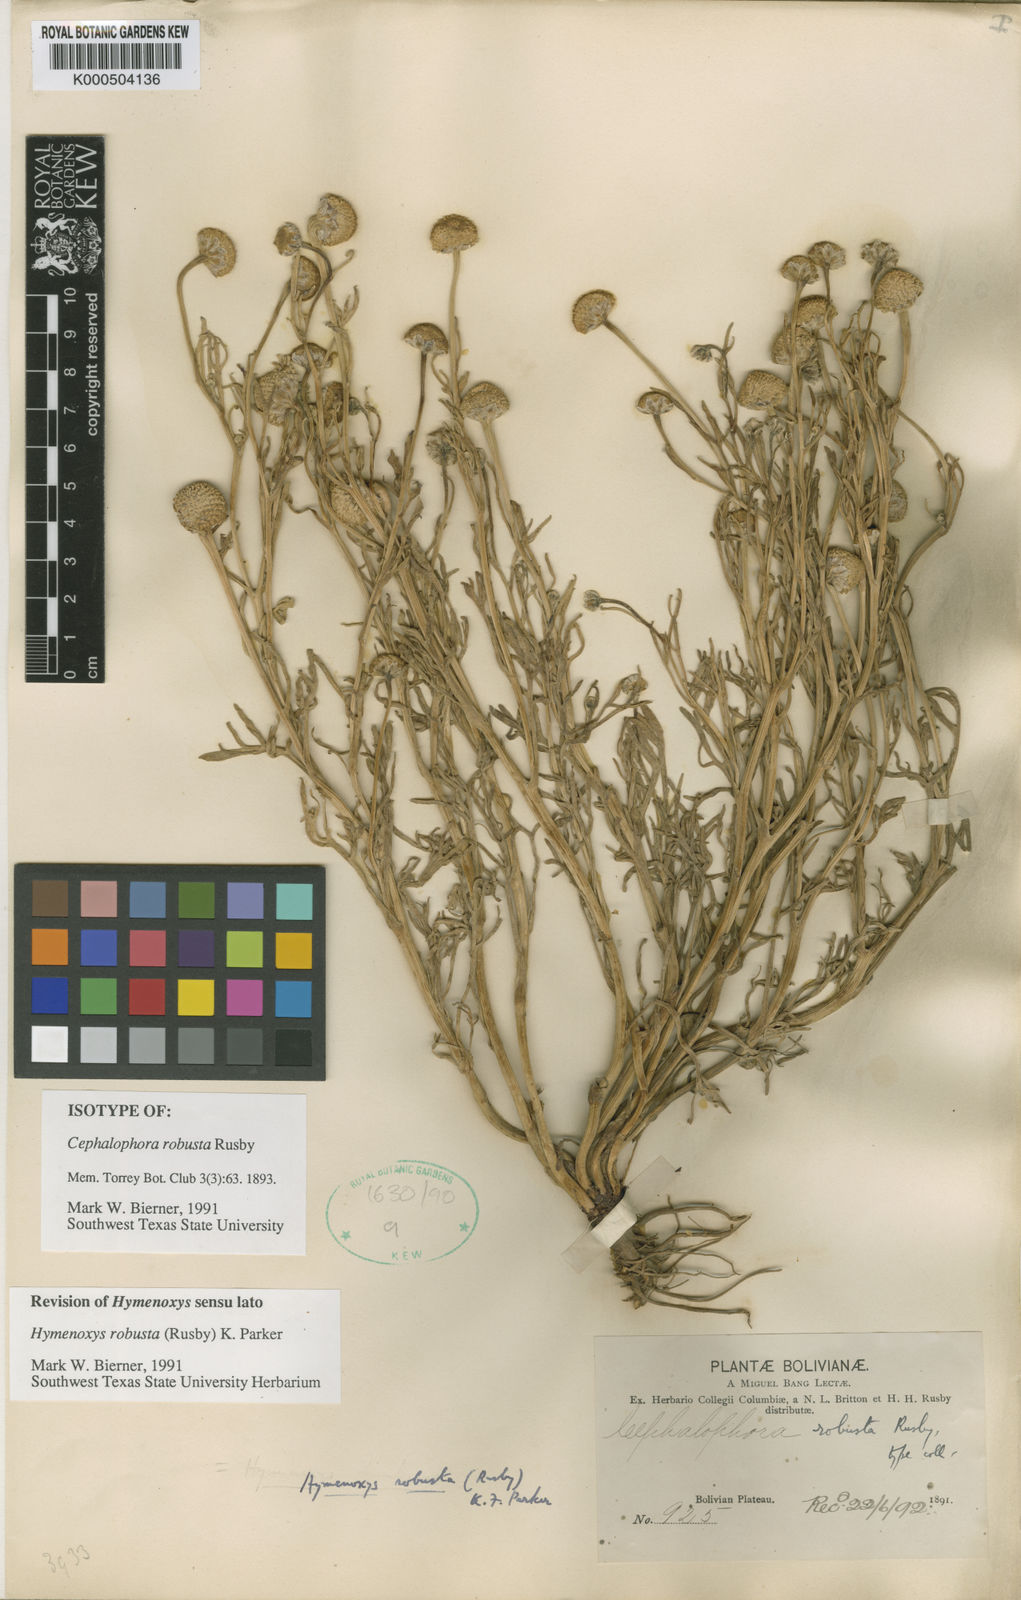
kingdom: Plantae
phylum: Tracheophyta
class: Magnoliopsida
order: Asterales
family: Asteraceae
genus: Hymenoxys
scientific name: Hymenoxys robusta
